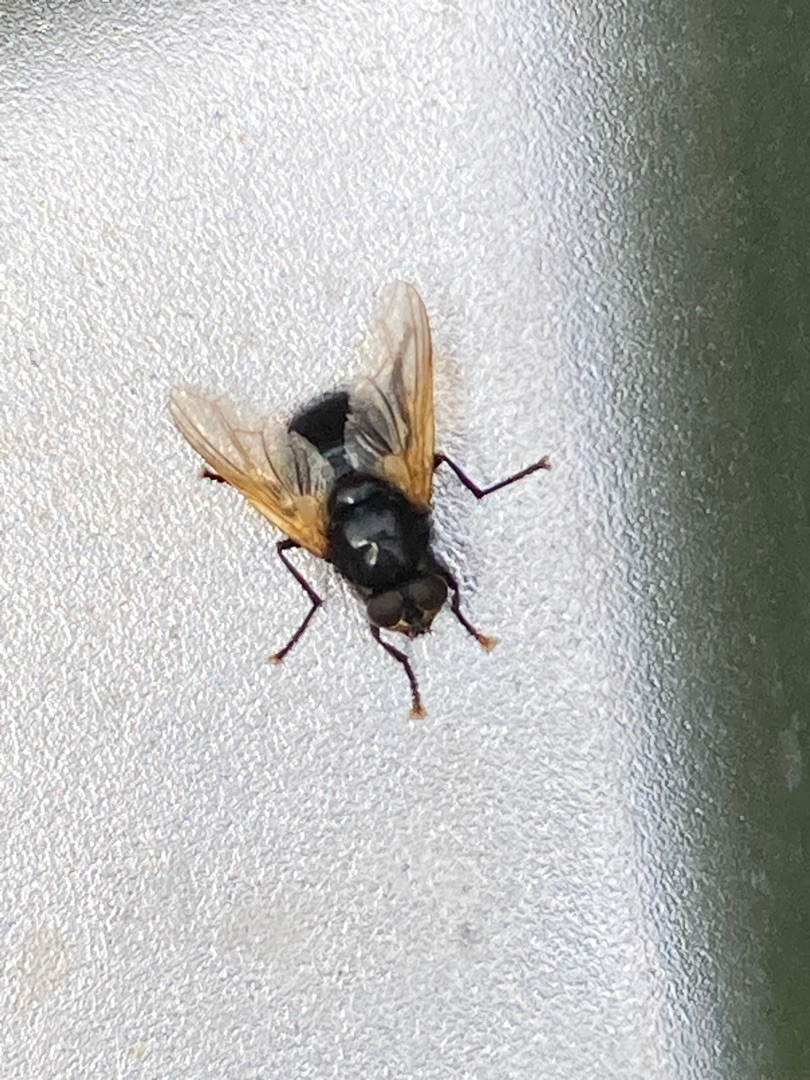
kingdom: Animalia
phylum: Arthropoda
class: Insecta
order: Diptera
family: Muscidae
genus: Mesembrina
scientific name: Mesembrina meridiana
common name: Gulvinget flue
